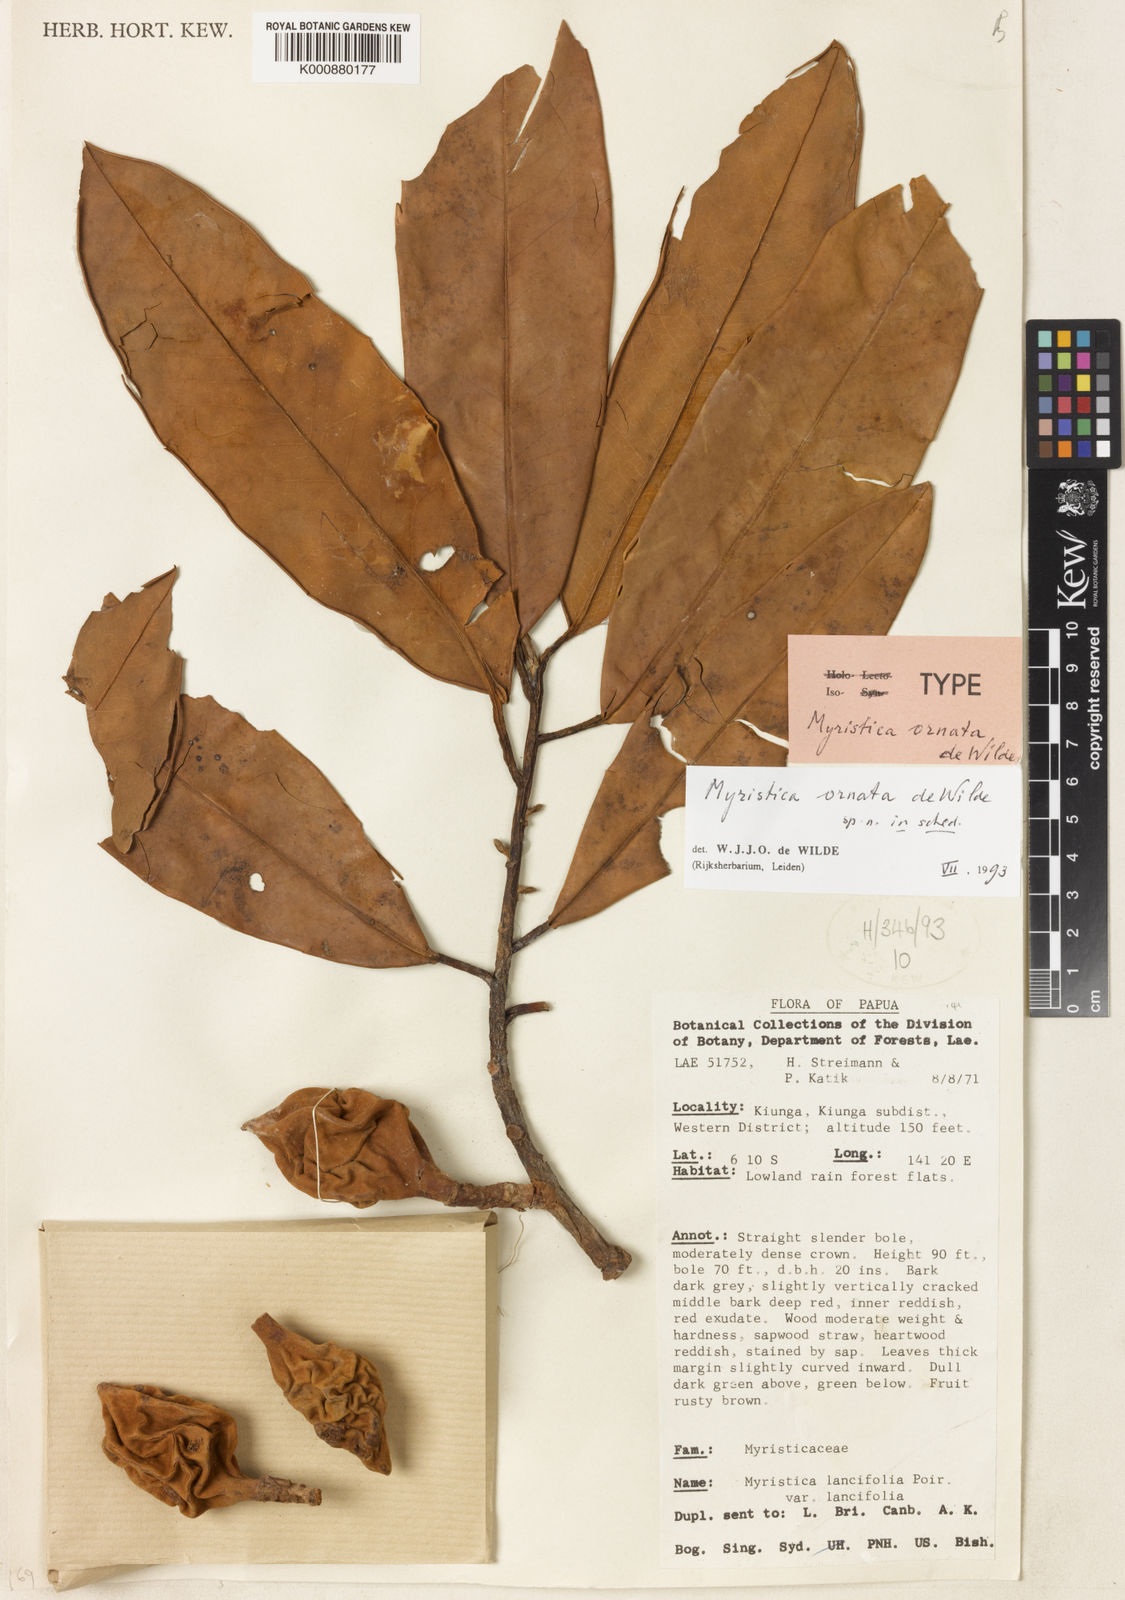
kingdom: Plantae
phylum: Tracheophyta
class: Magnoliopsida
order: Magnoliales
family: Myristicaceae
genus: Myristica
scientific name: Myristica ornata
